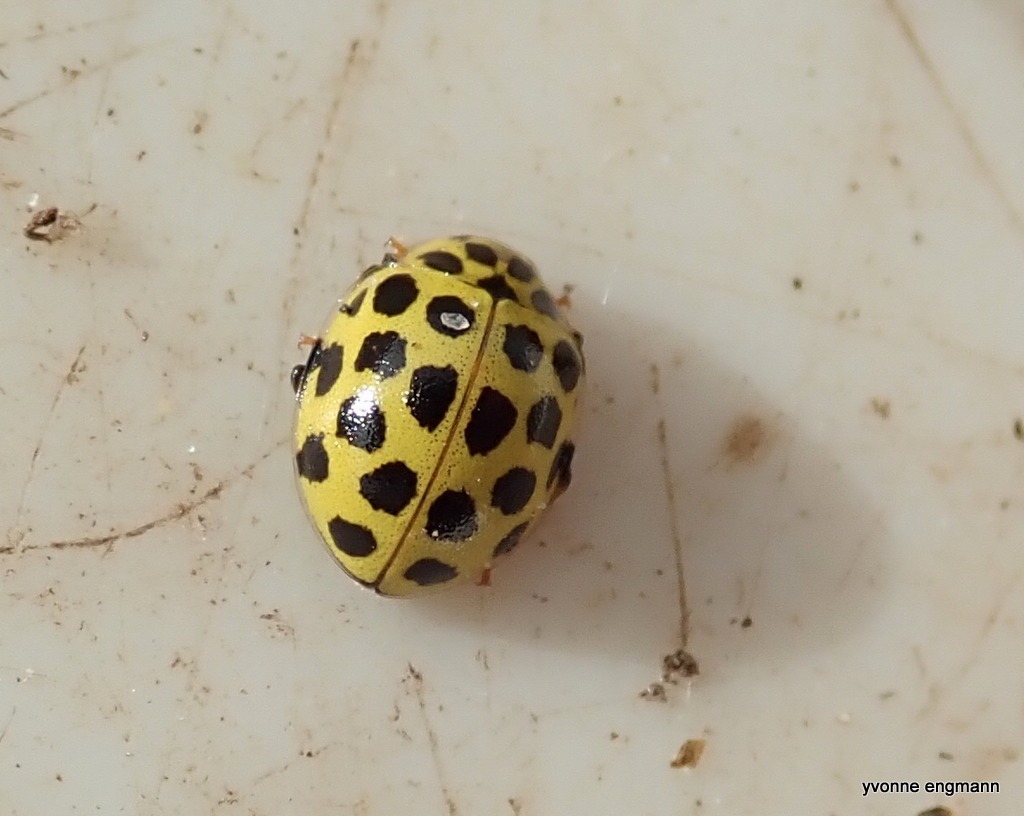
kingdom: Animalia
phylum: Arthropoda
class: Insecta
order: Coleoptera
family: Coccinellidae
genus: Psyllobora
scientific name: Psyllobora vigintiduopunctata
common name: Toogtyveplettet mariehøne
